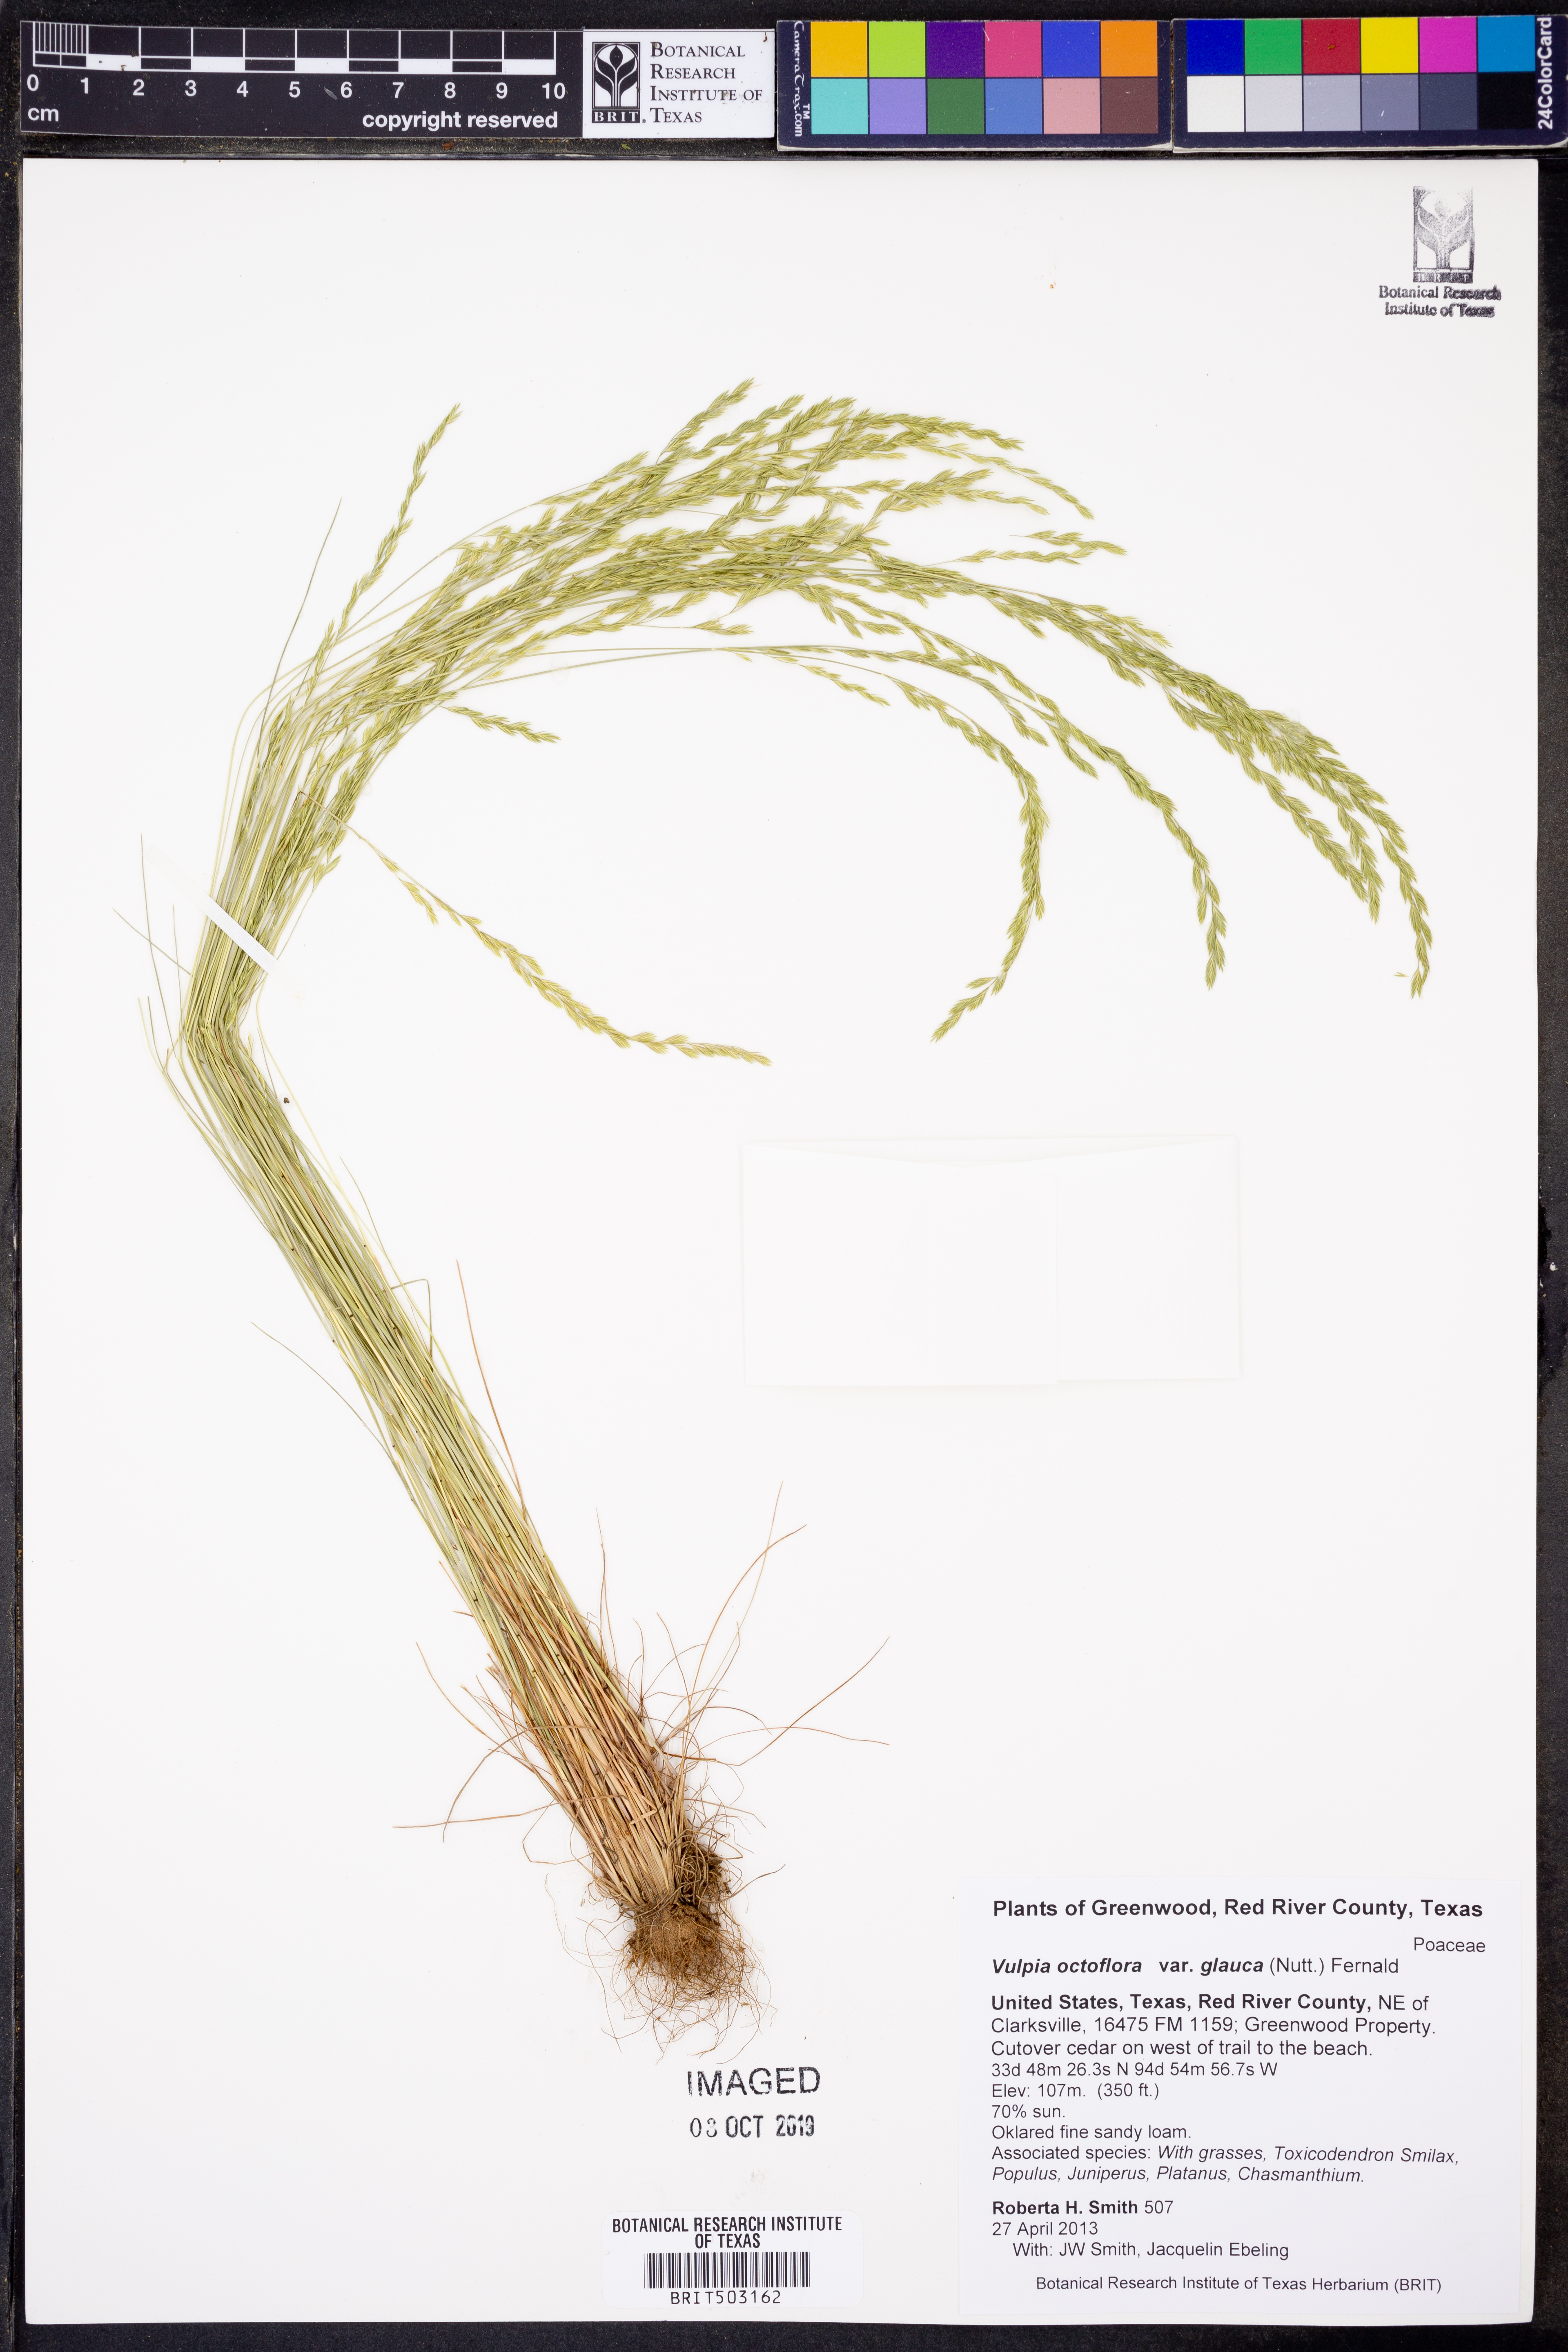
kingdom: Plantae
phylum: Tracheophyta
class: Liliopsida
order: Poales
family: Poaceae
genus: Festuca
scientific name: Festuca octoflora
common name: Sixweeks grass
